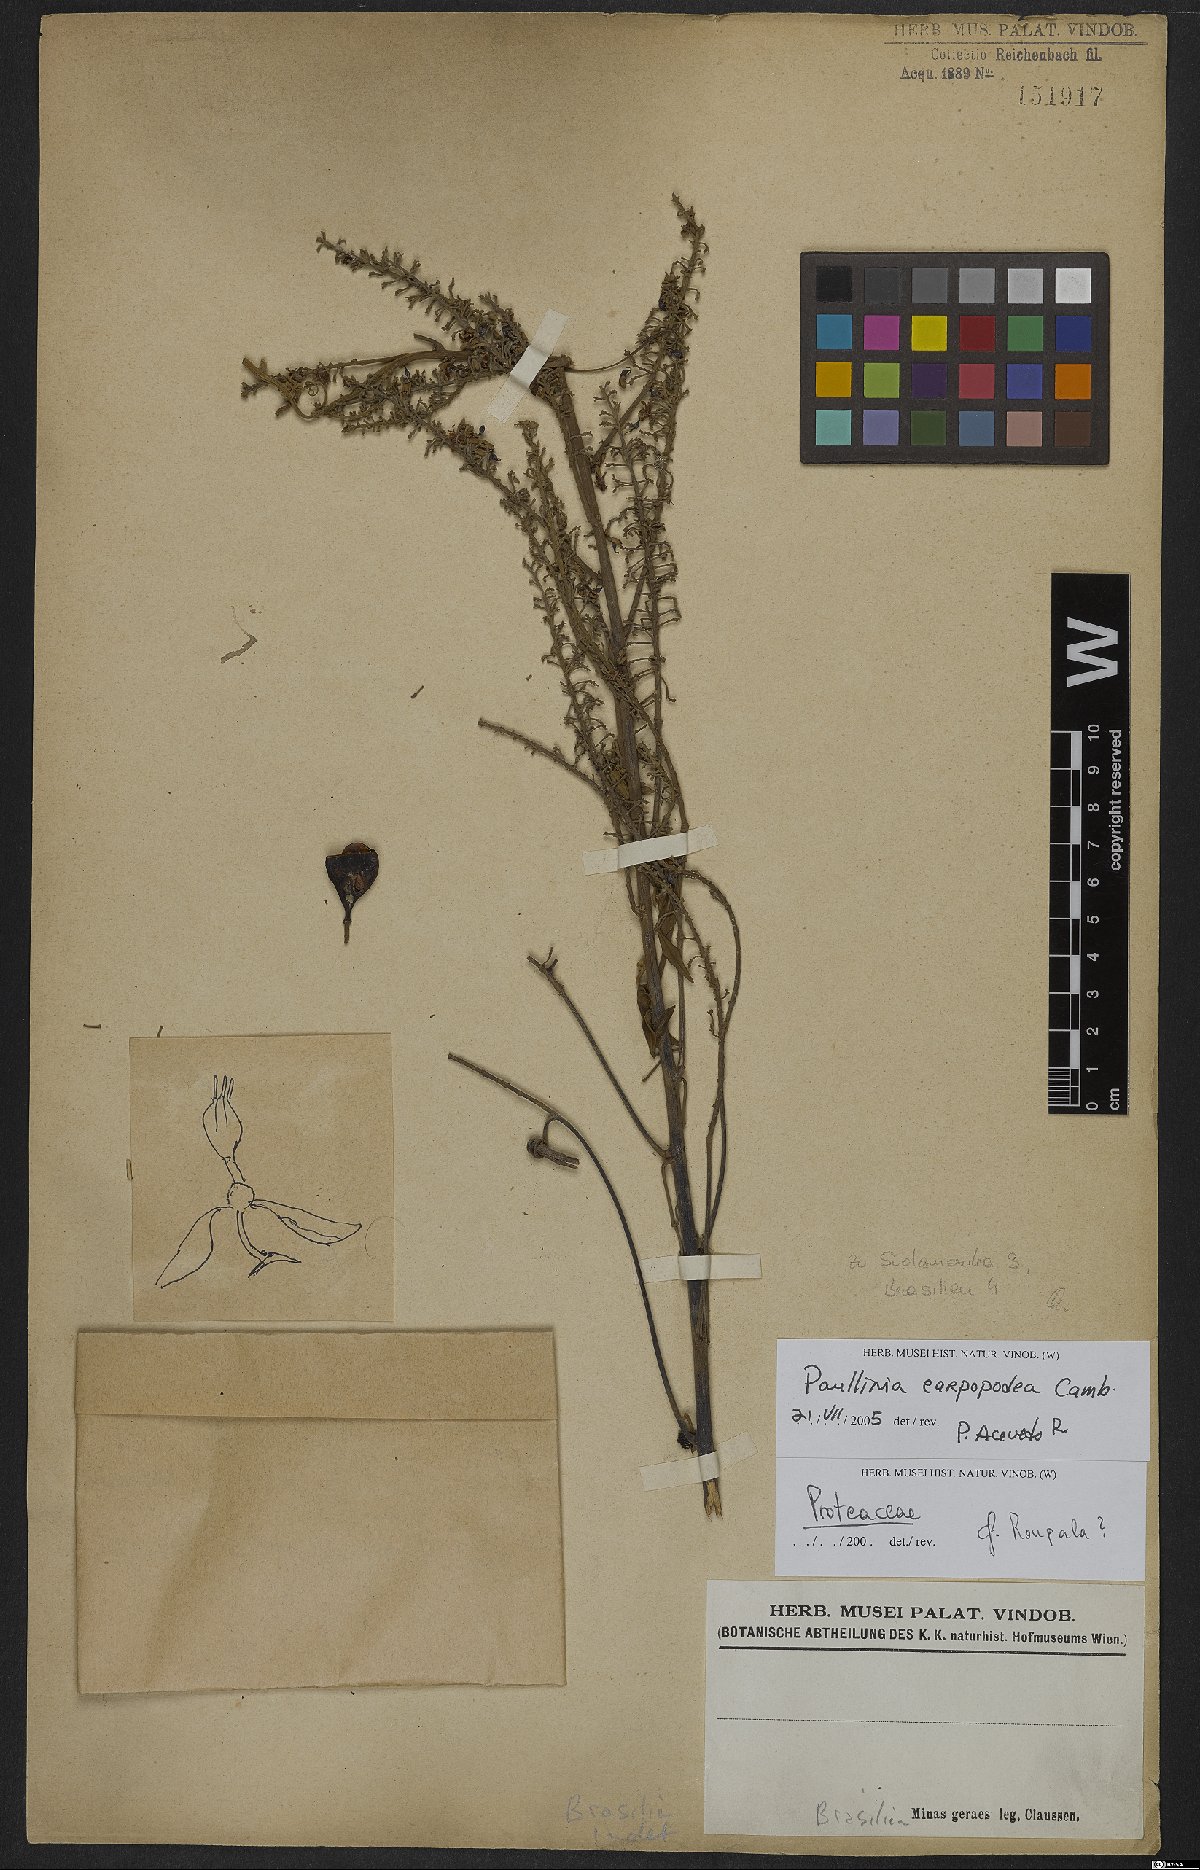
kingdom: Plantae
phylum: Tracheophyta
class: Magnoliopsida
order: Sapindales
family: Sapindaceae
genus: Paullinia
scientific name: Paullinia carpopoda
